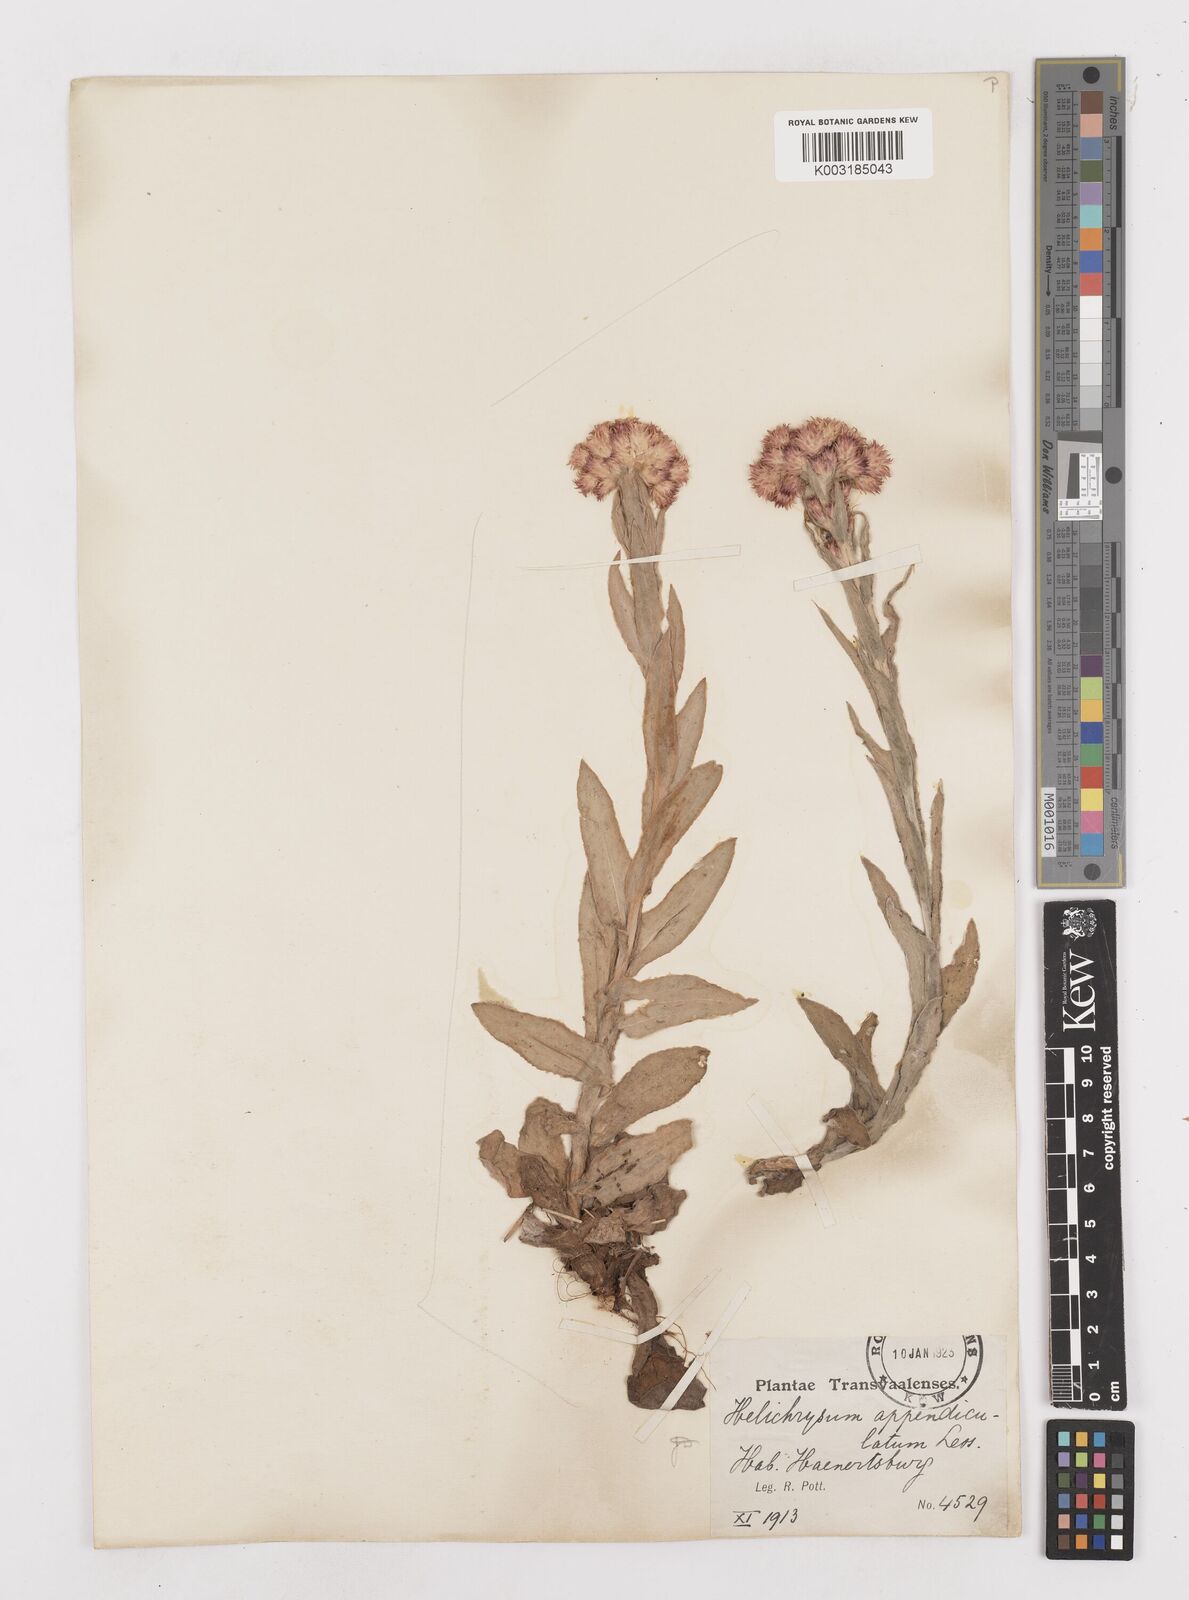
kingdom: Plantae
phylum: Tracheophyta
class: Magnoliopsida
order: Asterales
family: Asteraceae
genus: Helichrysum
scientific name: Helichrysum appendiculatum
